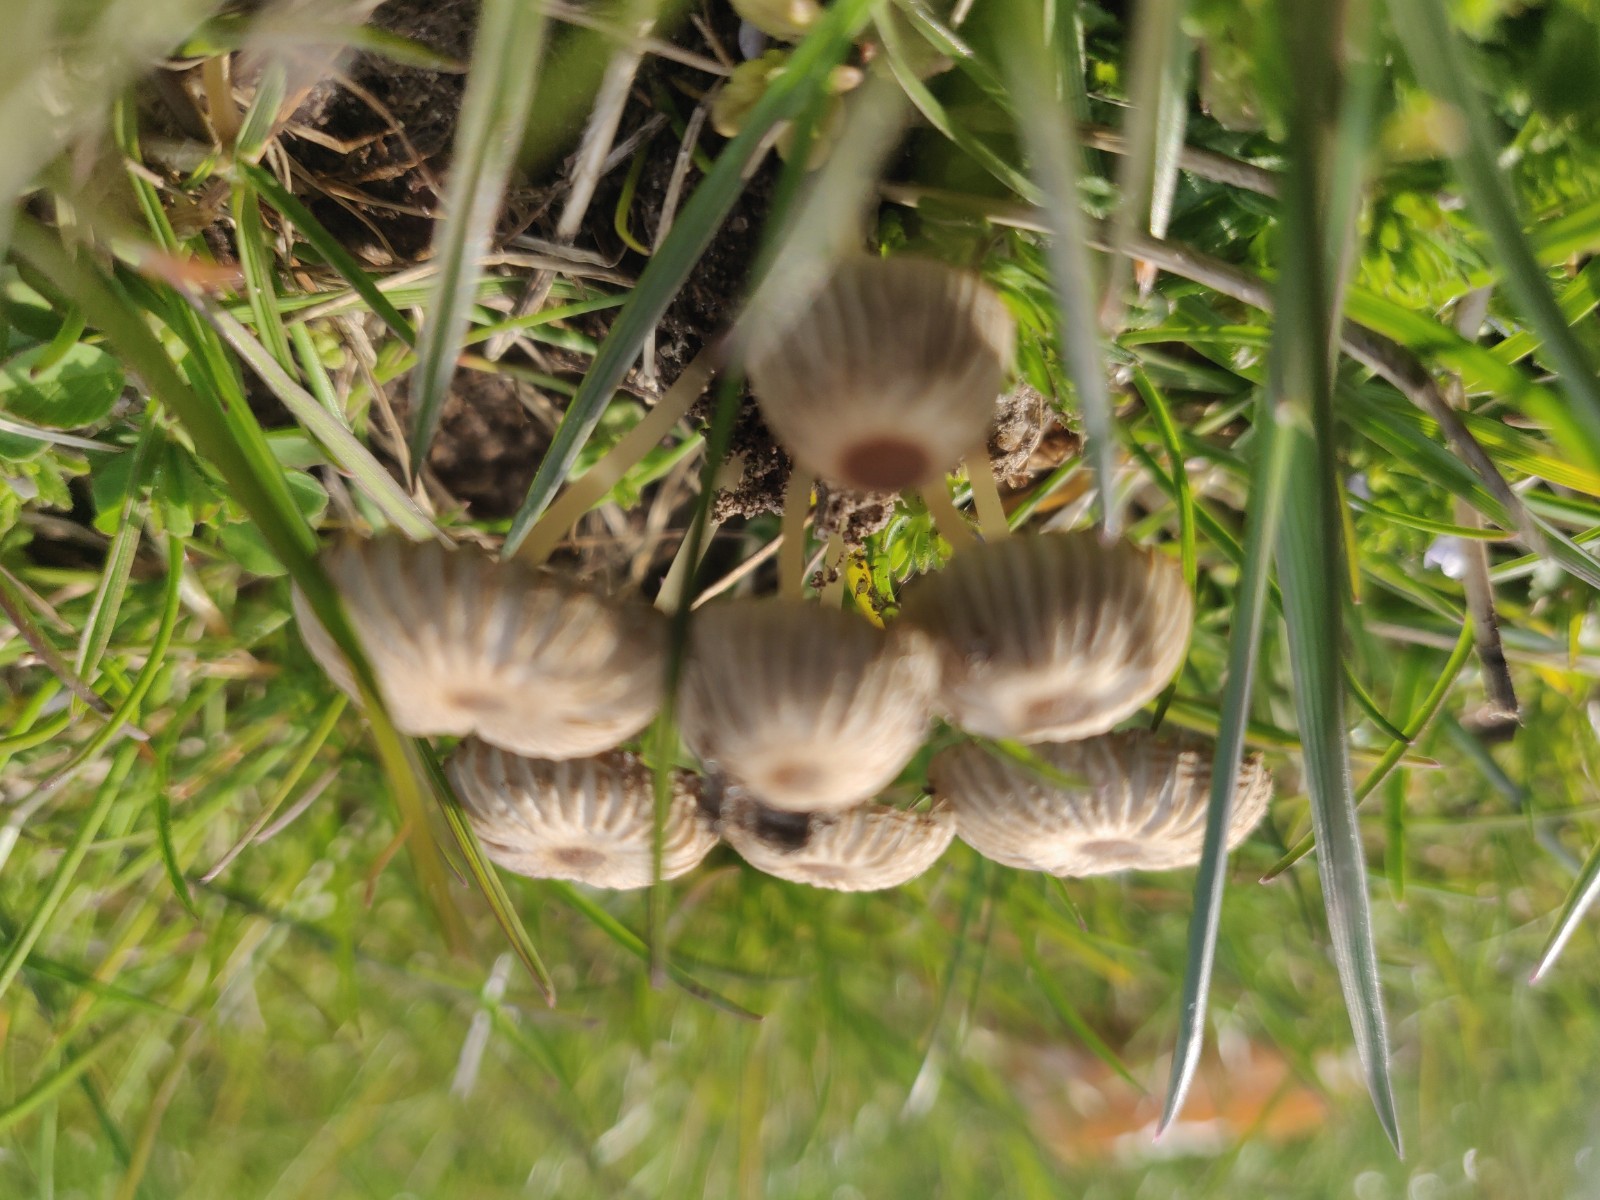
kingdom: Fungi
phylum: Basidiomycota
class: Agaricomycetes
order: Agaricales
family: Psathyrellaceae
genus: Parasola
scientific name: Parasola
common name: hjulhat
